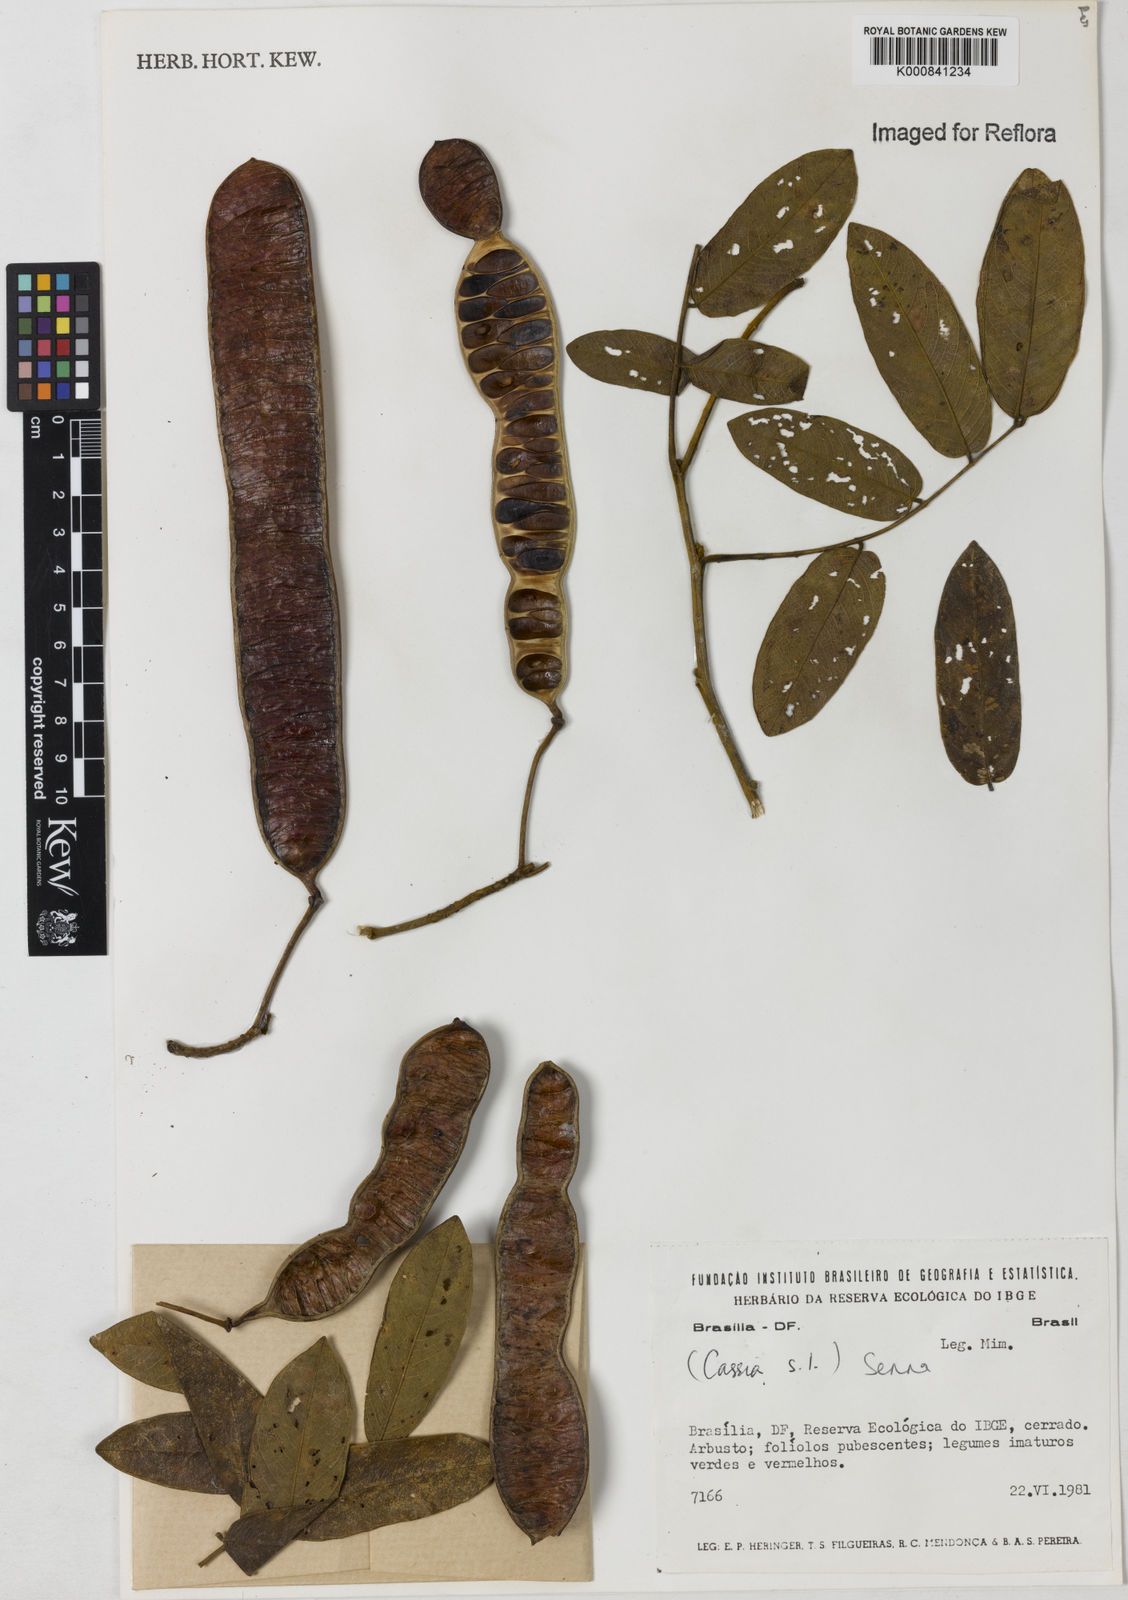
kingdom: Plantae
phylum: Tracheophyta
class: Magnoliopsida
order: Fabales
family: Fabaceae
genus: Senna
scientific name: Senna
